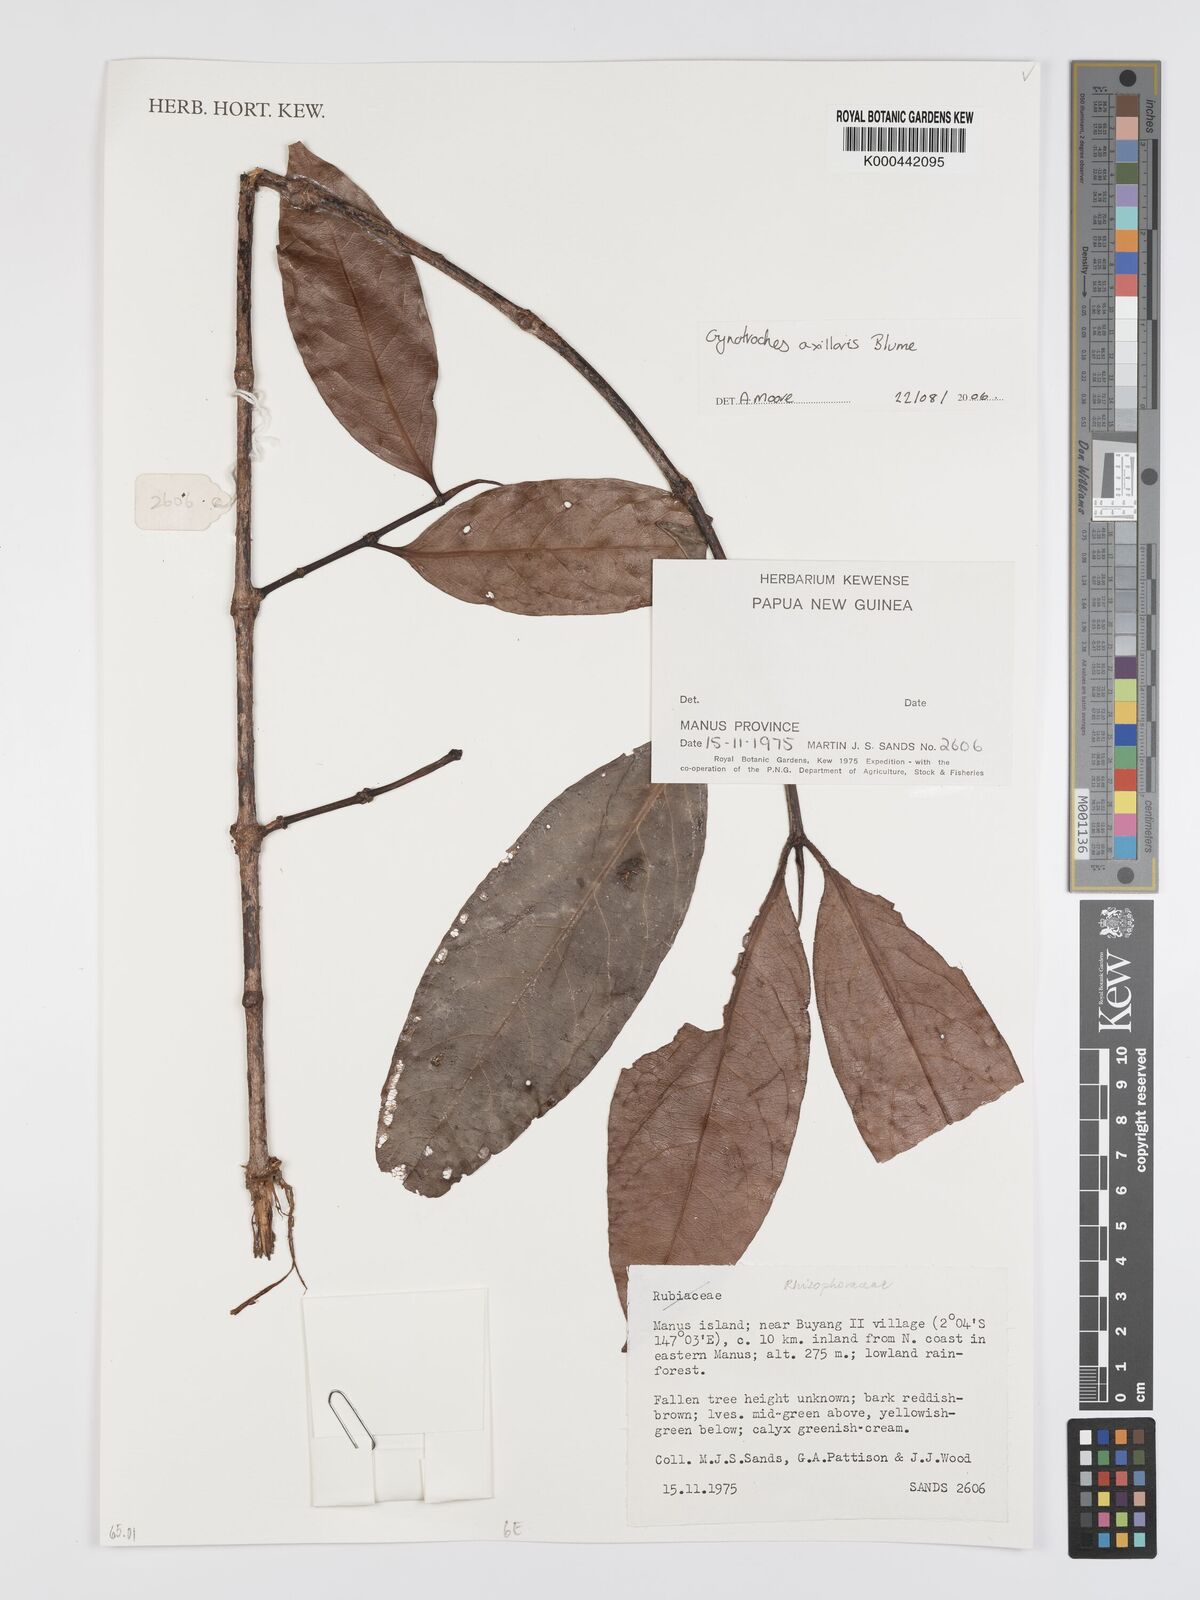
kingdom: Plantae
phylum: Tracheophyta
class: Magnoliopsida
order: Malpighiales
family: Rhizophoraceae
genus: Gynotroches
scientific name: Gynotroches axillaris
